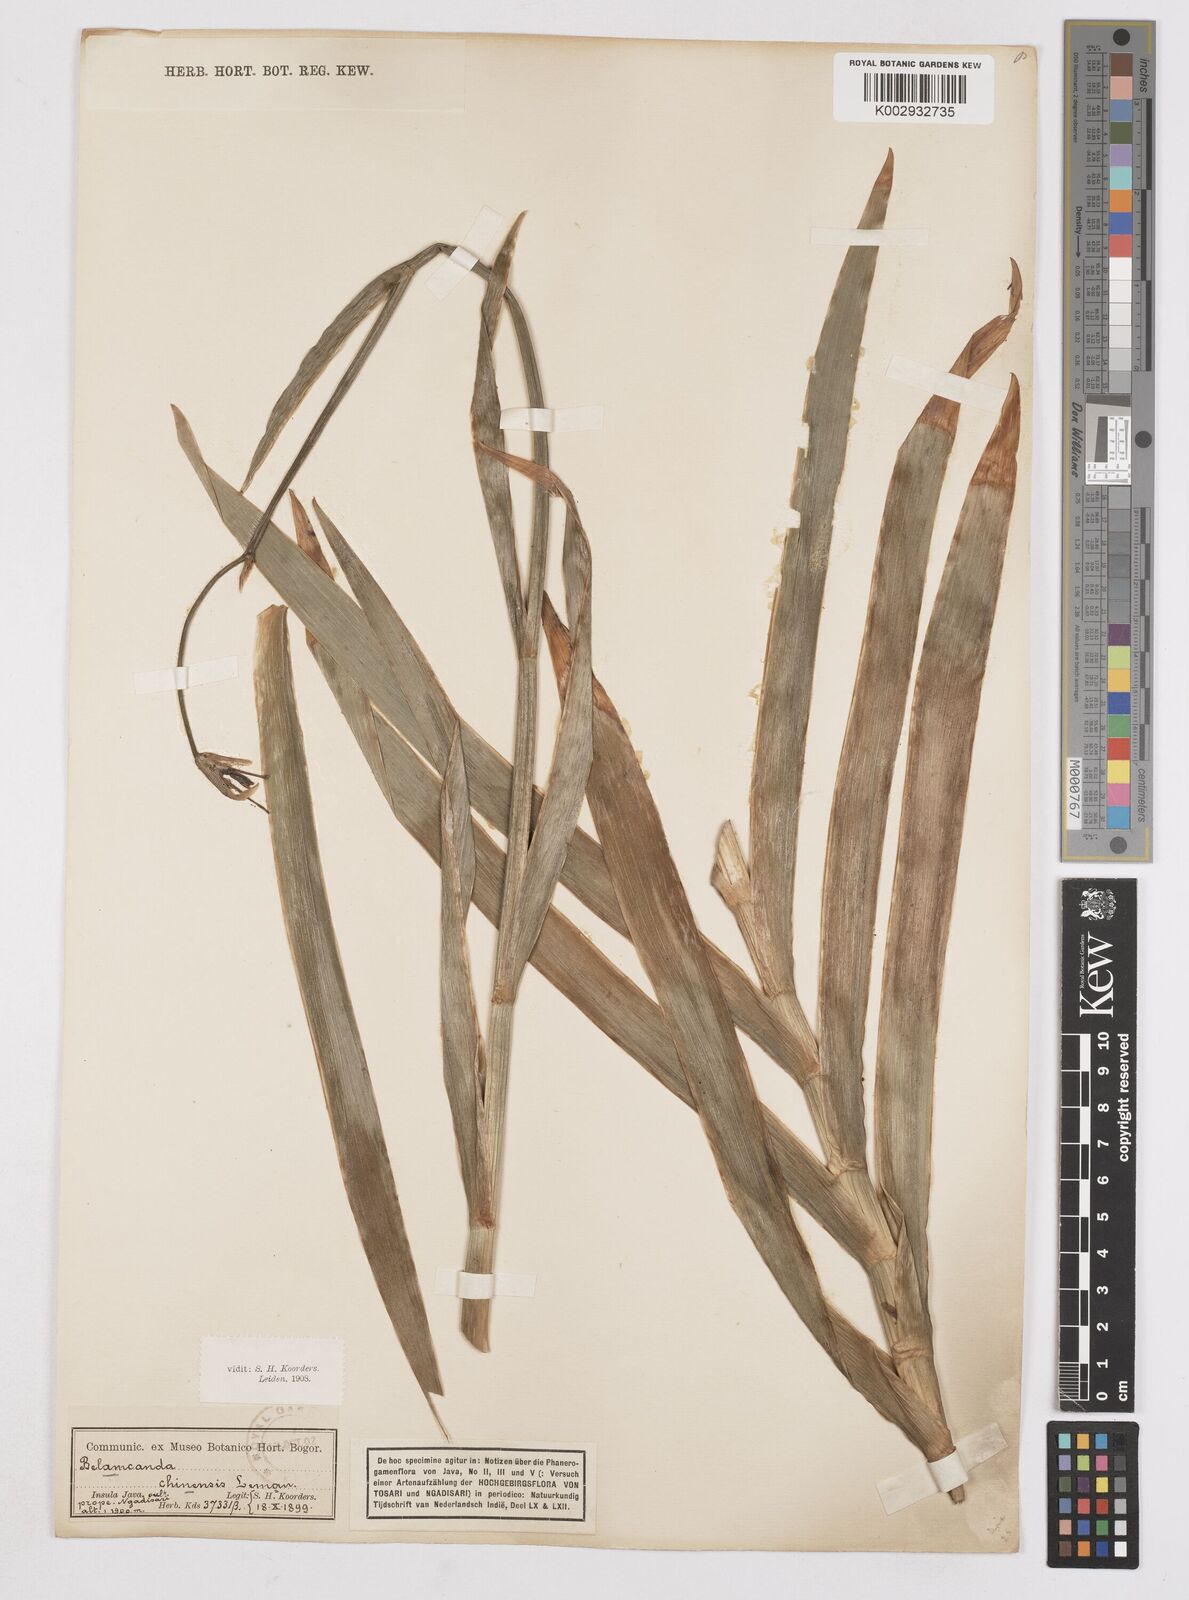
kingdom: Plantae
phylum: Tracheophyta
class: Liliopsida
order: Asparagales
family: Iridaceae
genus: Iris
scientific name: Iris
